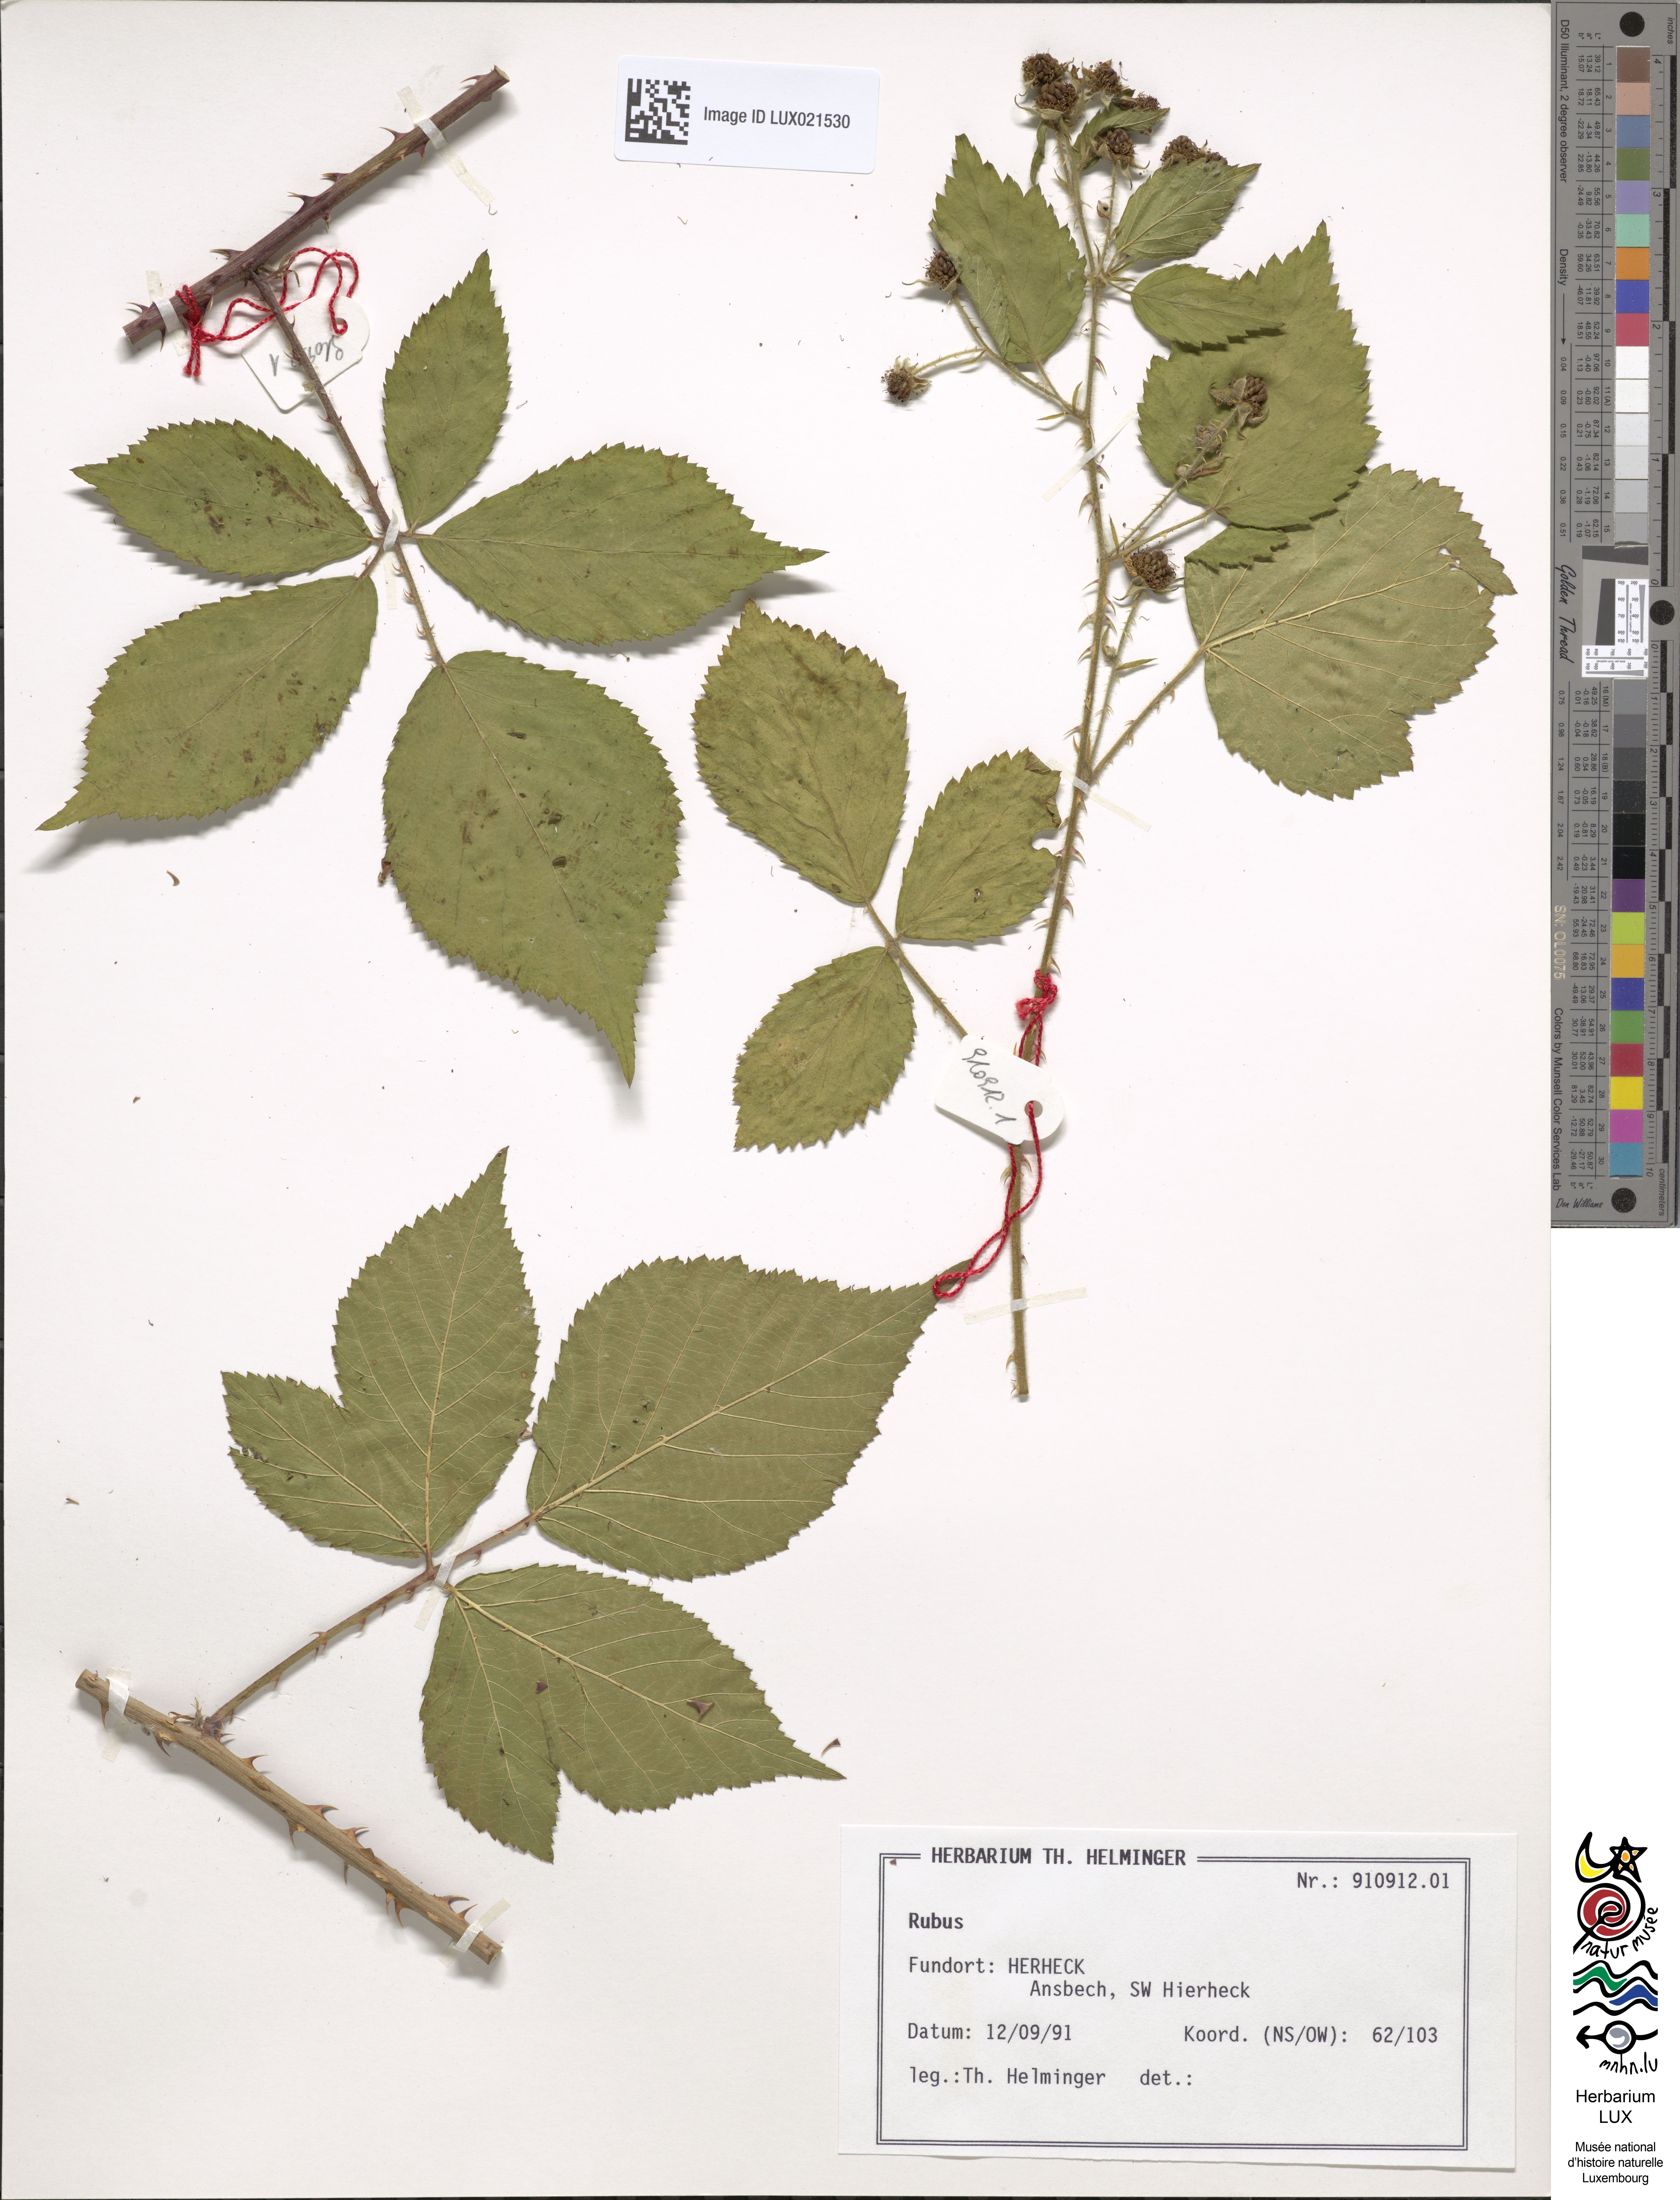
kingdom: Plantae
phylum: Tracheophyta
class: Magnoliopsida
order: Rosales
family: Rosaceae
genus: Rubus
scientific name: Rubus
